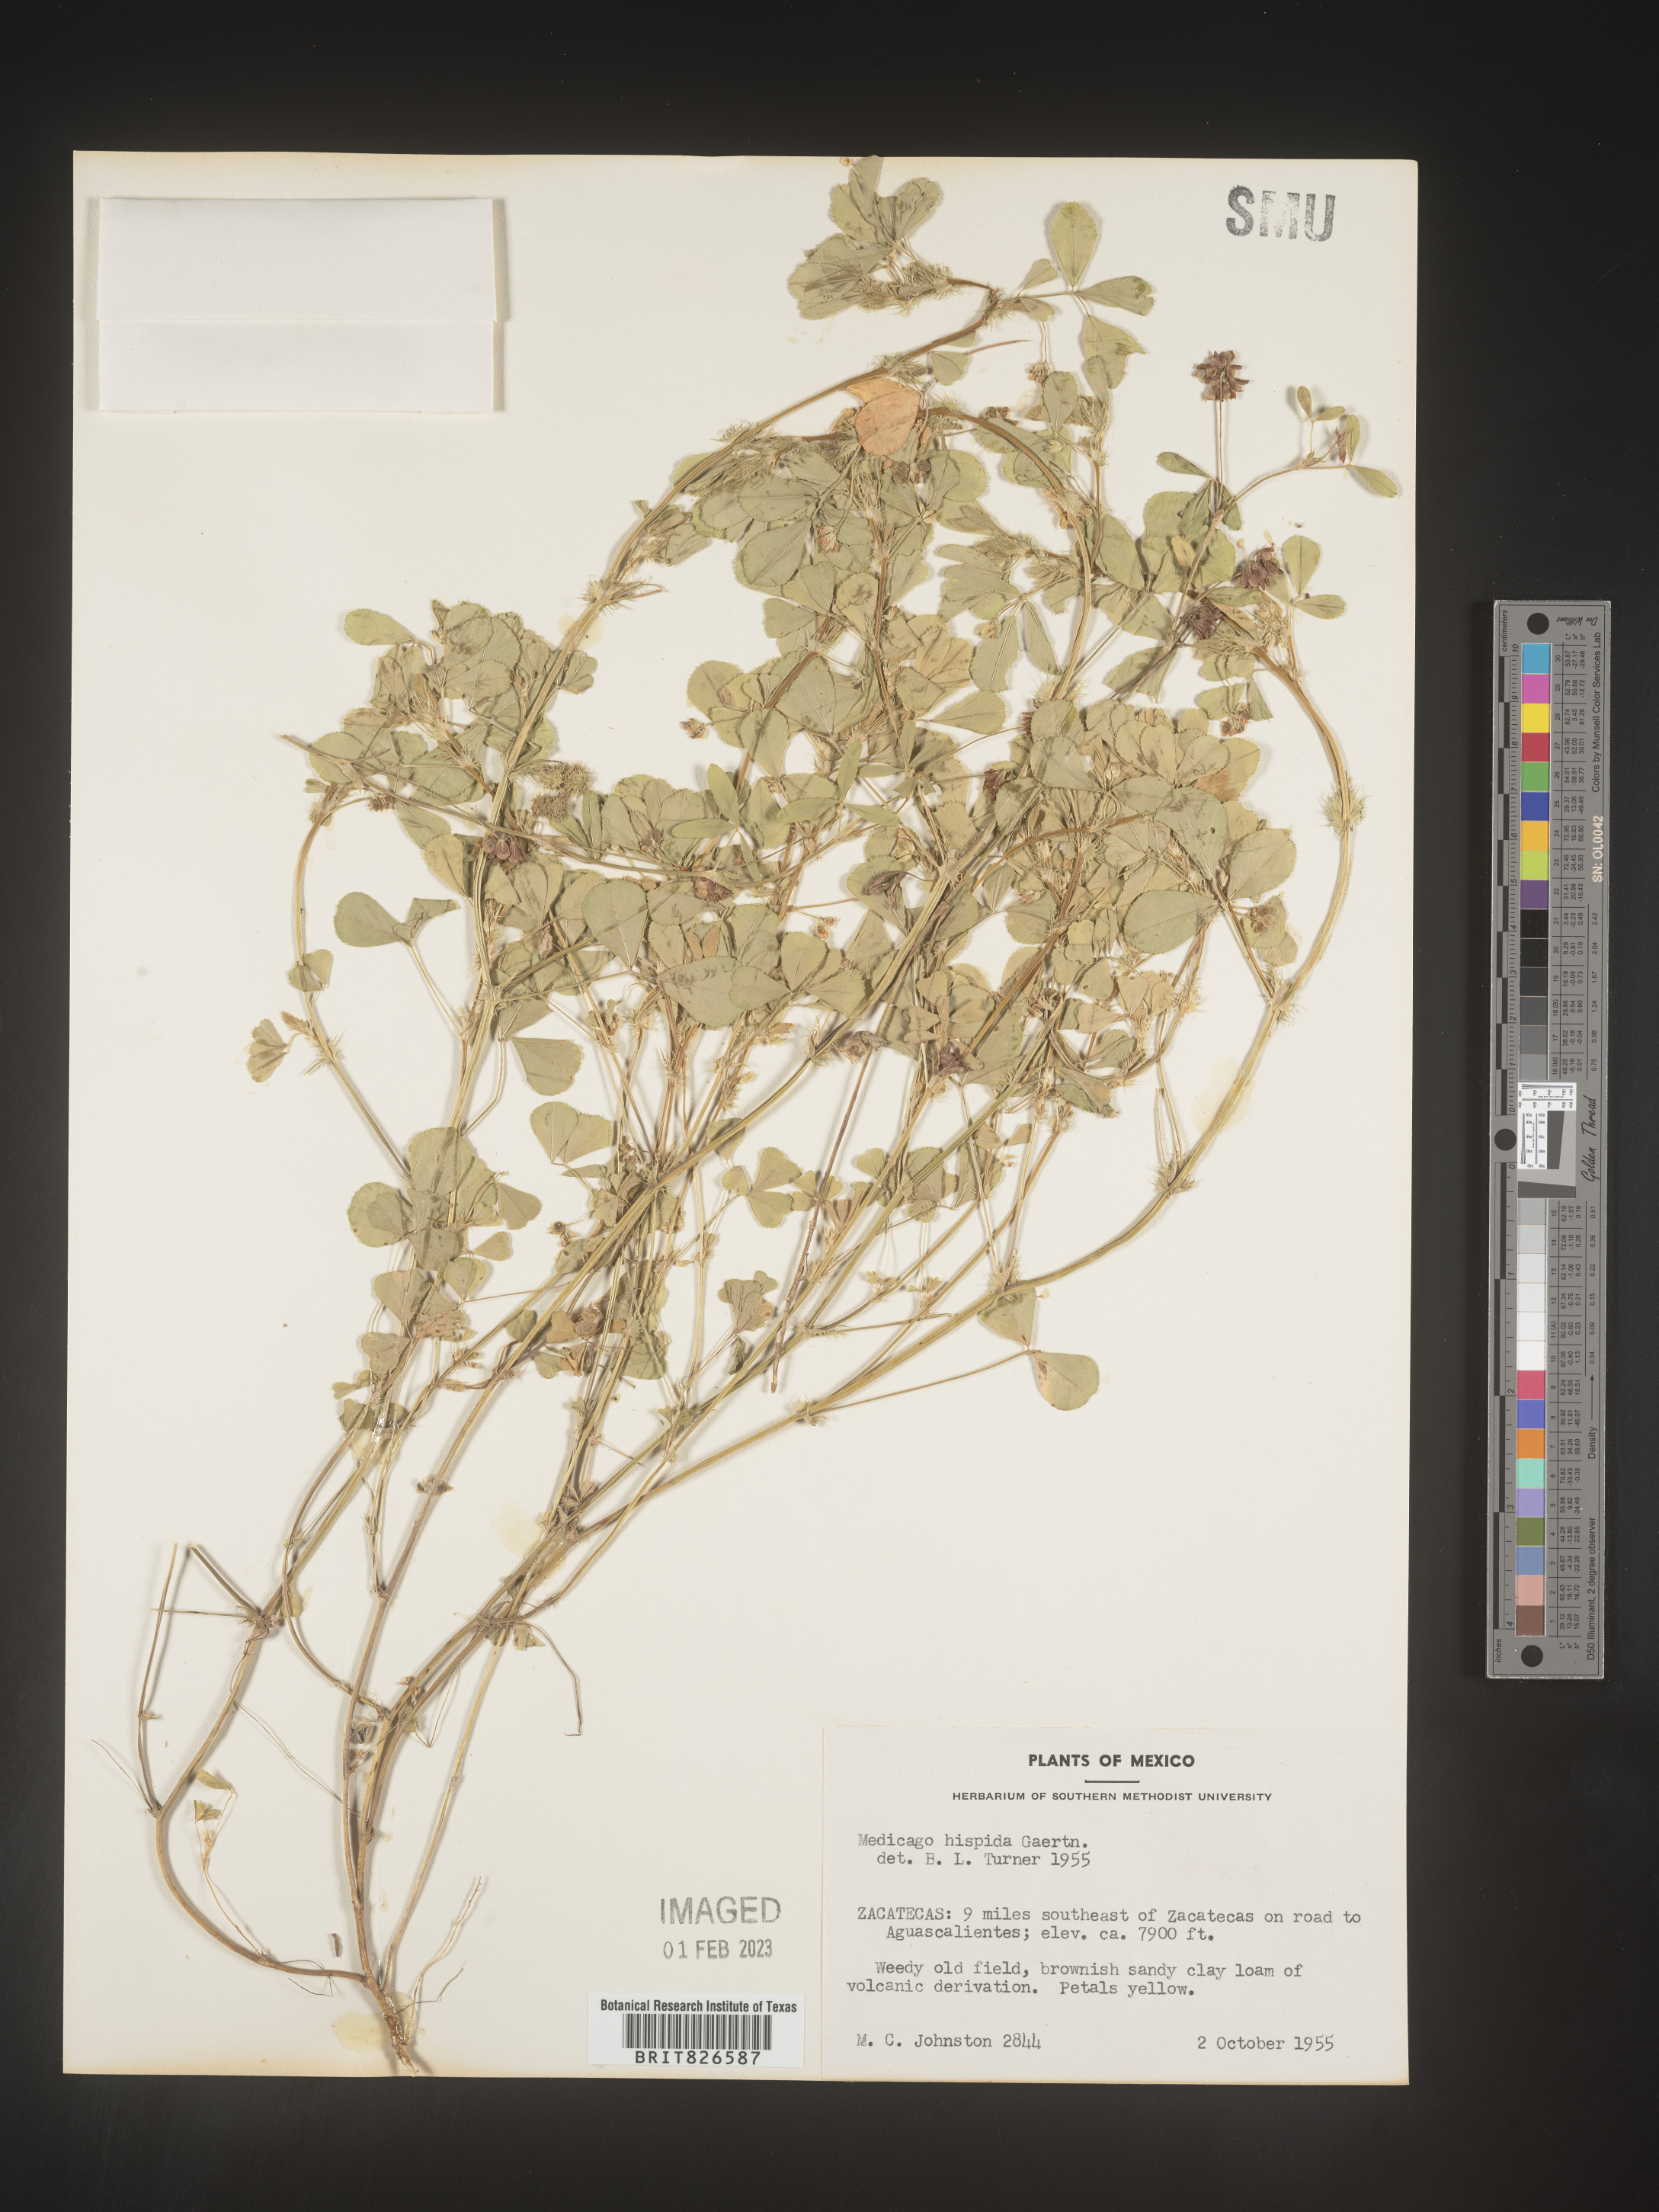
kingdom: Plantae
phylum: Tracheophyta
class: Magnoliopsida
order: Fabales
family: Fabaceae
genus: Medicago
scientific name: Medicago
